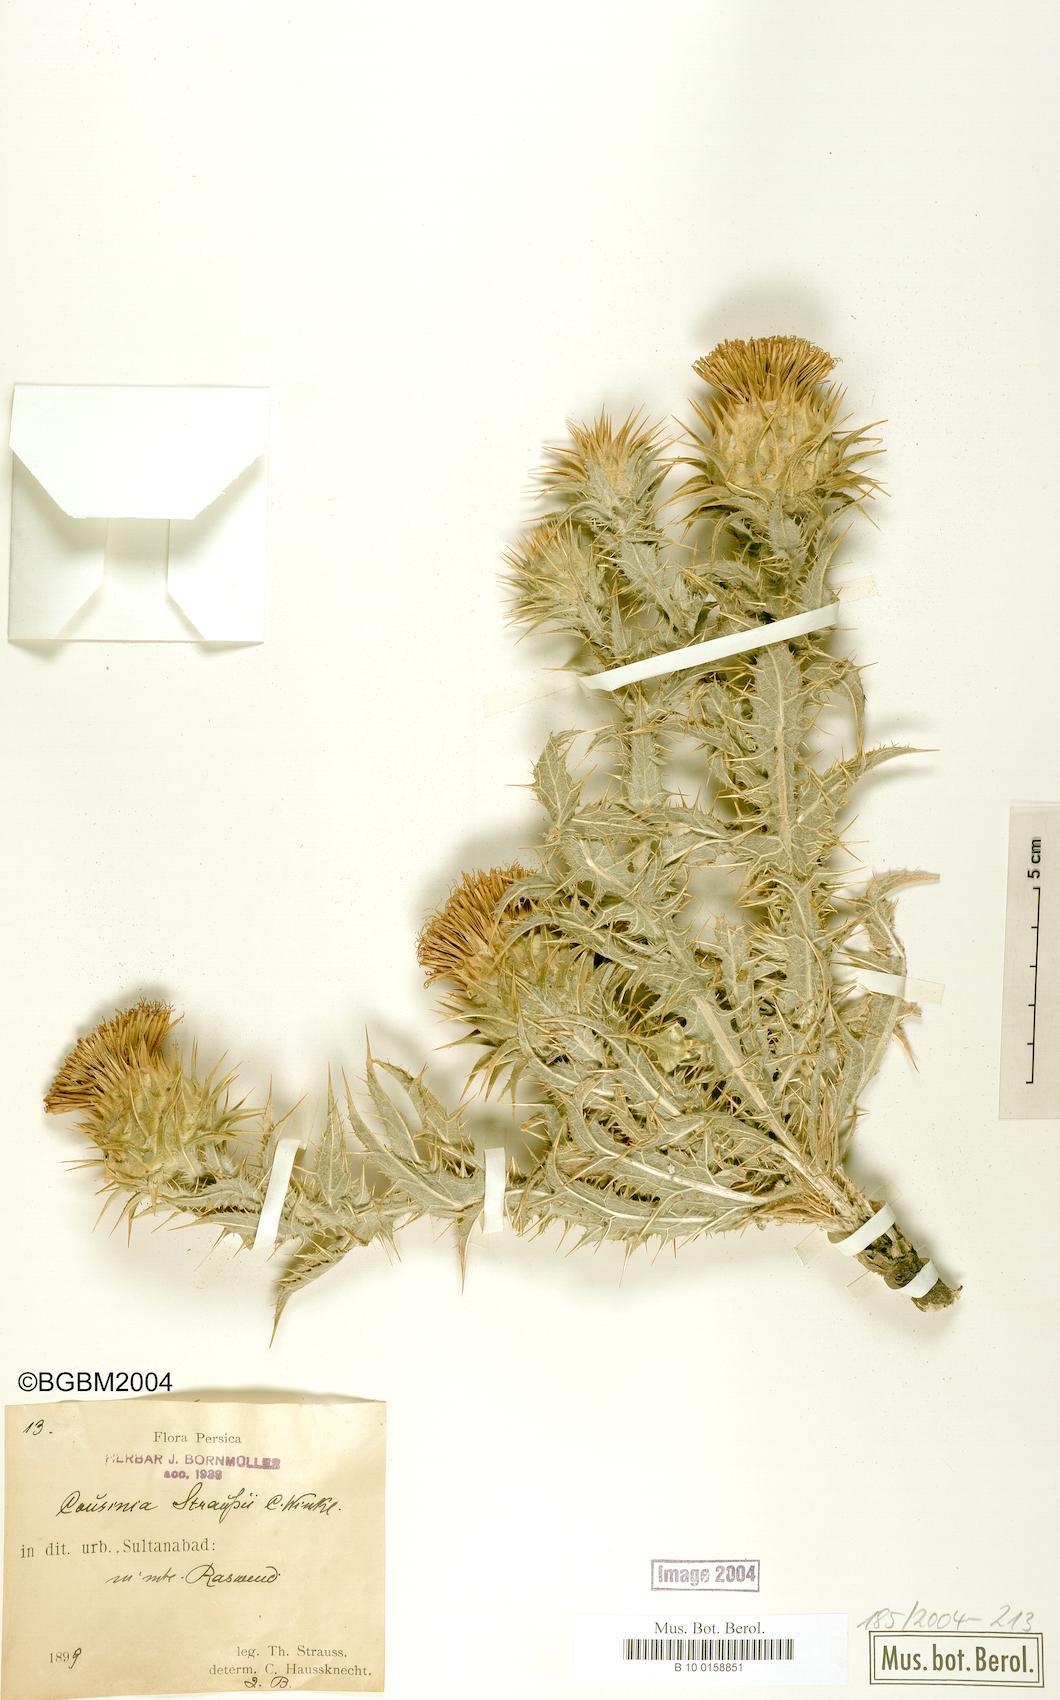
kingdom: Plantae
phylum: Tracheophyta
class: Magnoliopsida
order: Asterales
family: Asteraceae
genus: Cousinia
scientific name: Cousinia inflata
